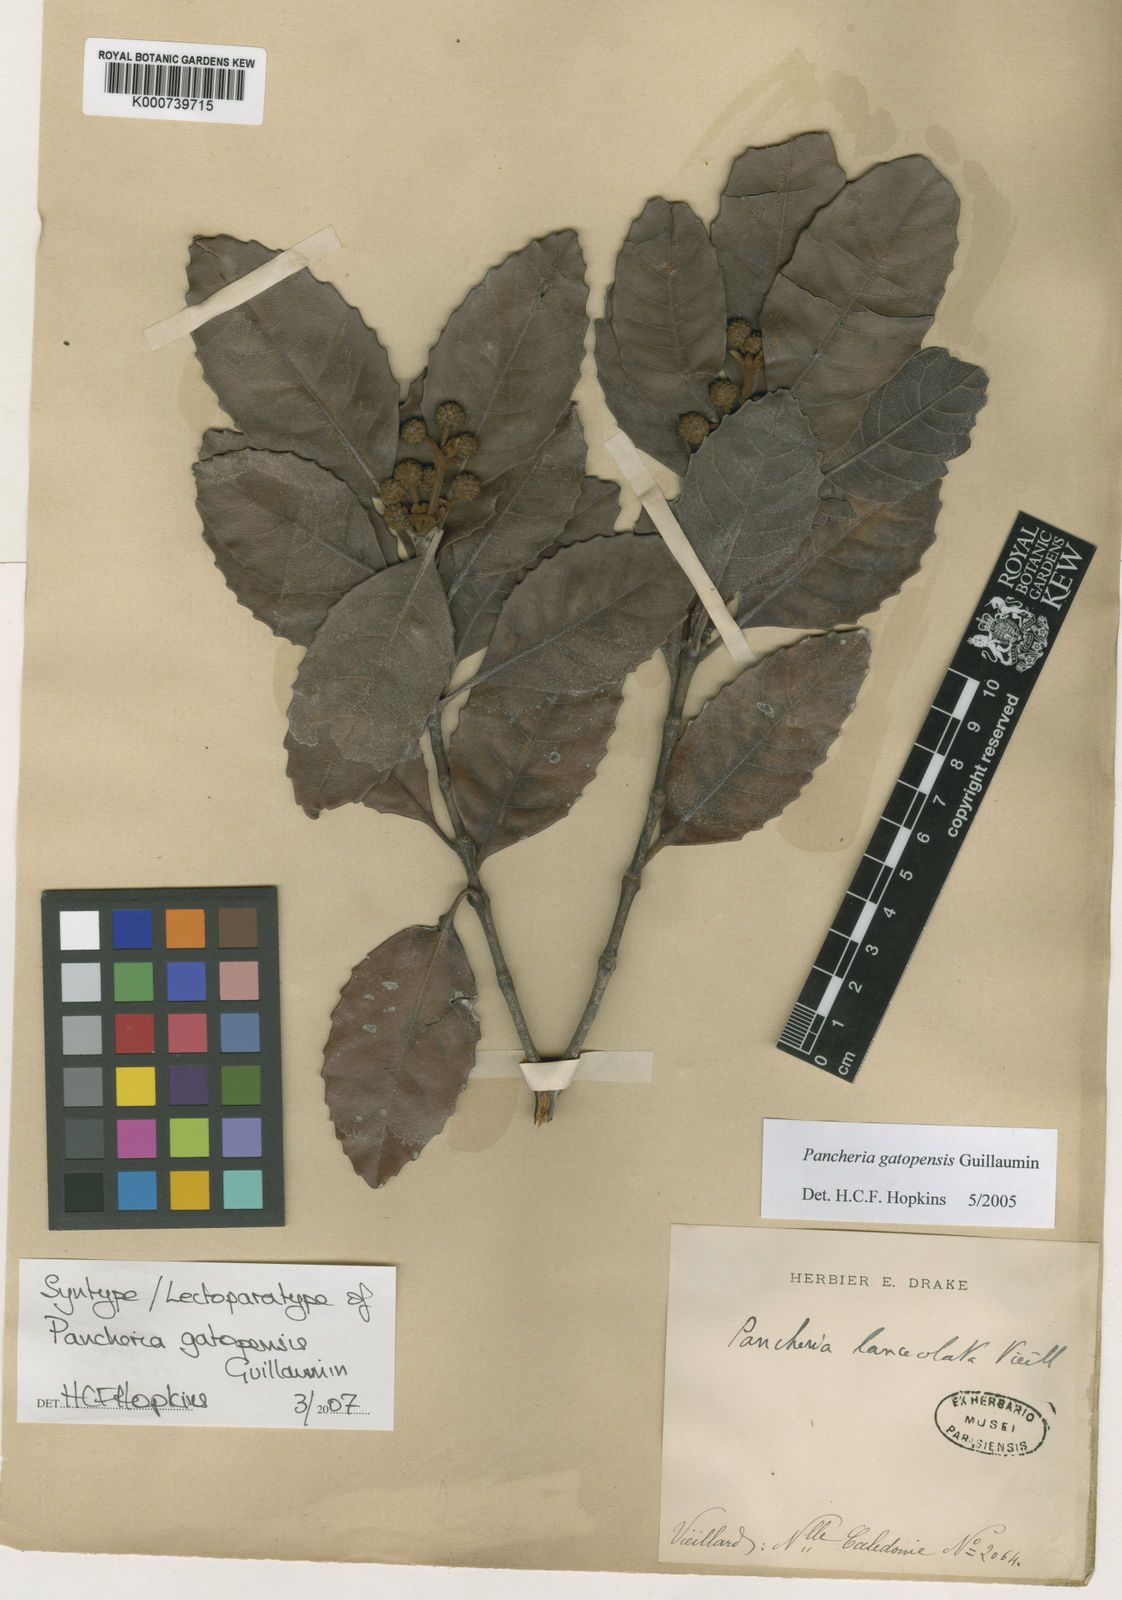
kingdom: Plantae
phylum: Tracheophyta
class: Magnoliopsida
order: Oxalidales
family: Cunoniaceae
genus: Pancheria
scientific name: Pancheria gatopensis
